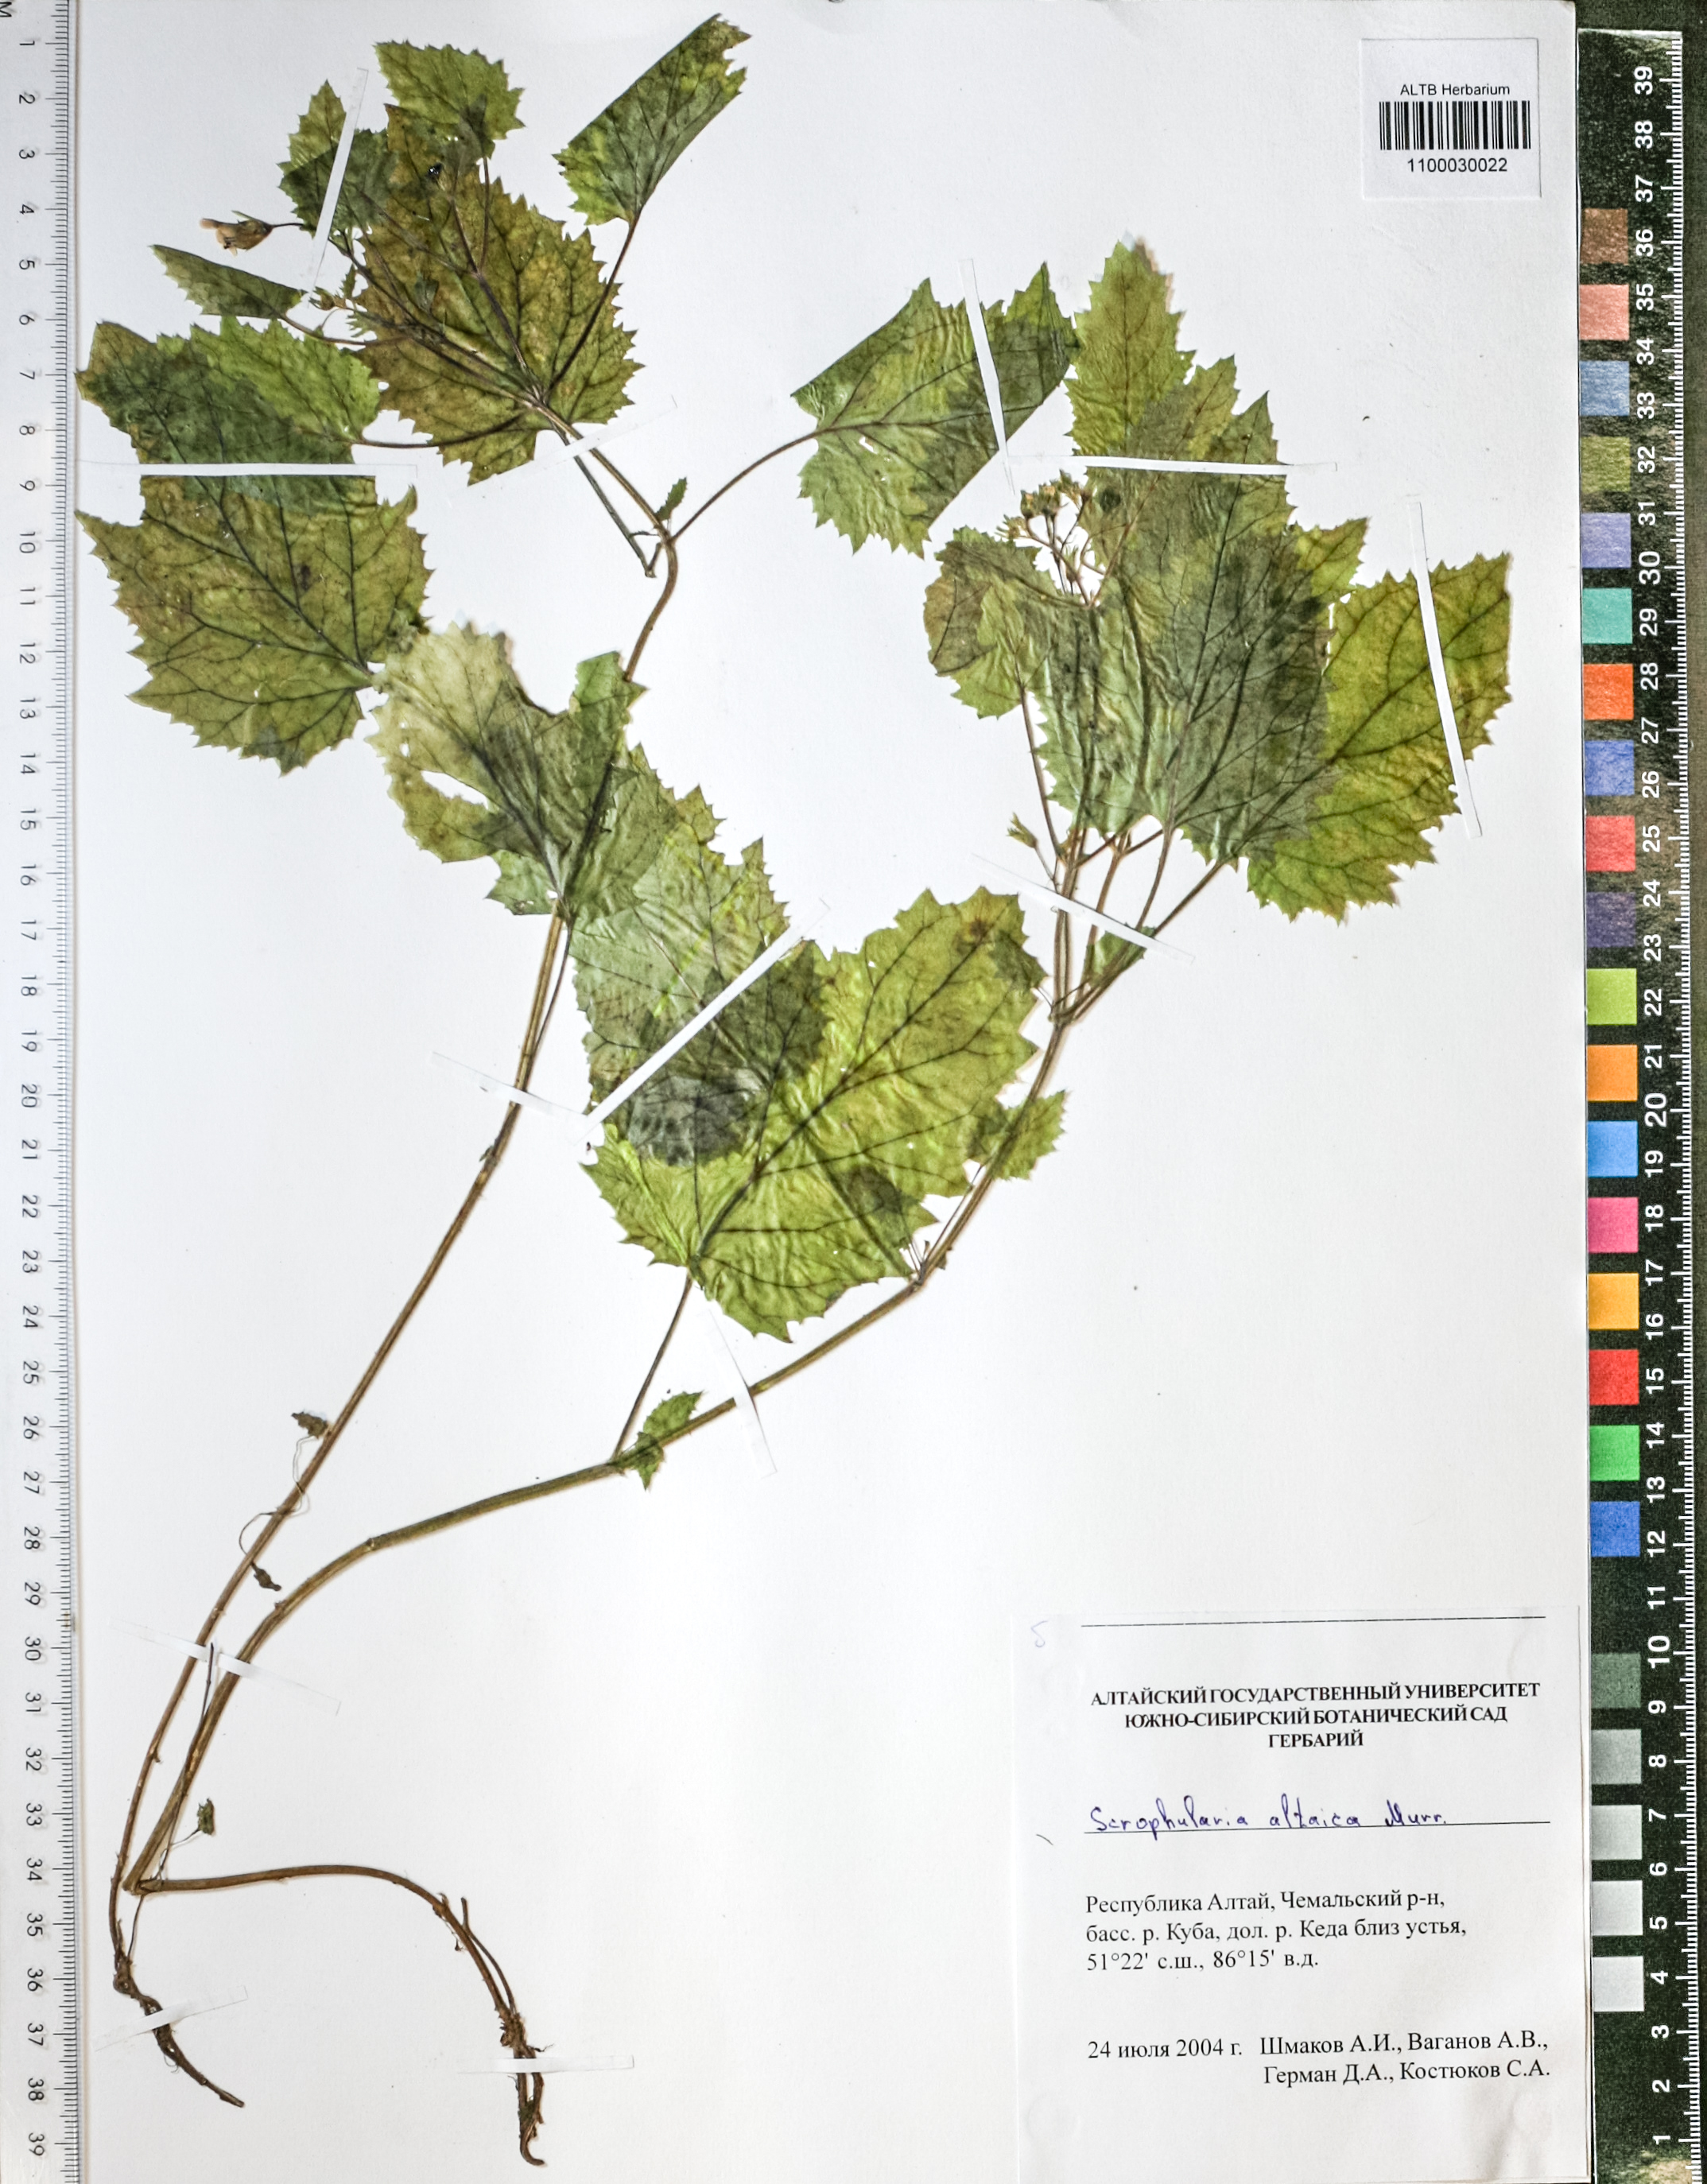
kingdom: Plantae
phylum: Tracheophyta
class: Magnoliopsida
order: Lamiales
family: Scrophulariaceae
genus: Scrophularia
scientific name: Scrophularia altaica
